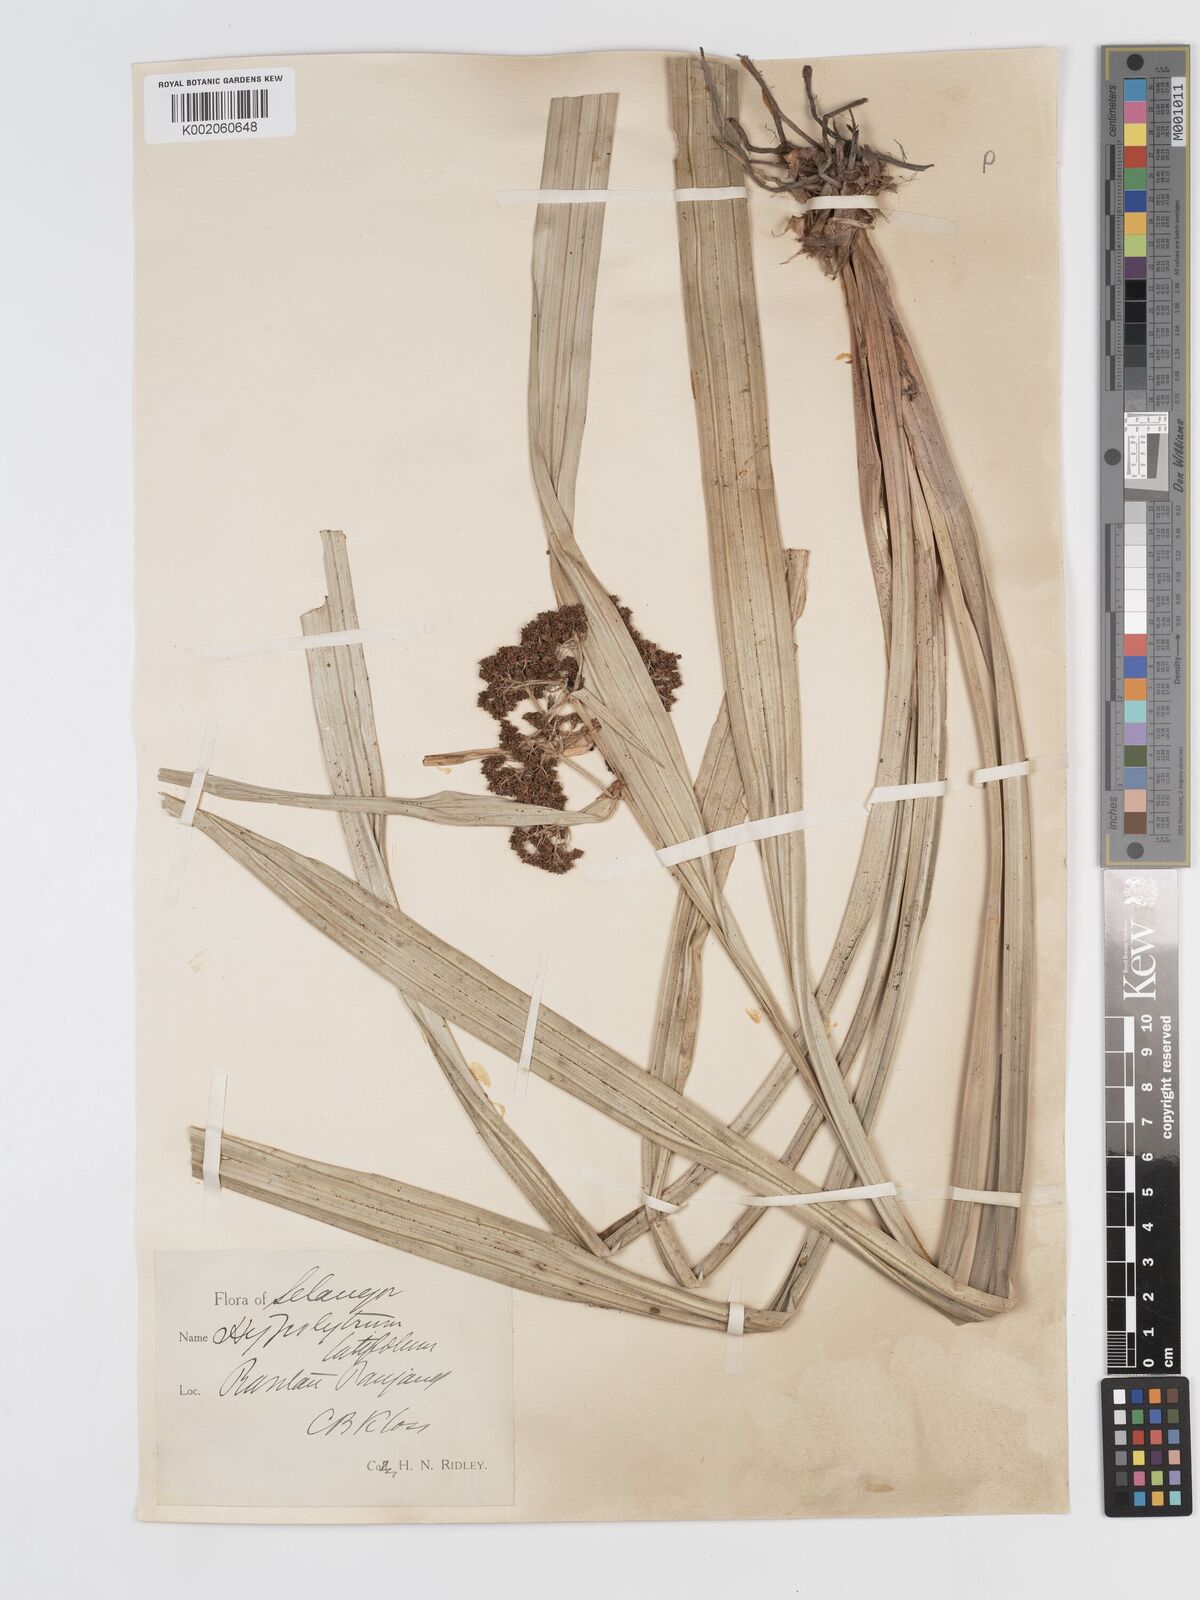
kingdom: Plantae
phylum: Tracheophyta
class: Liliopsida
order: Poales
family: Cyperaceae
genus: Hypolytrum
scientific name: Hypolytrum nemorum
